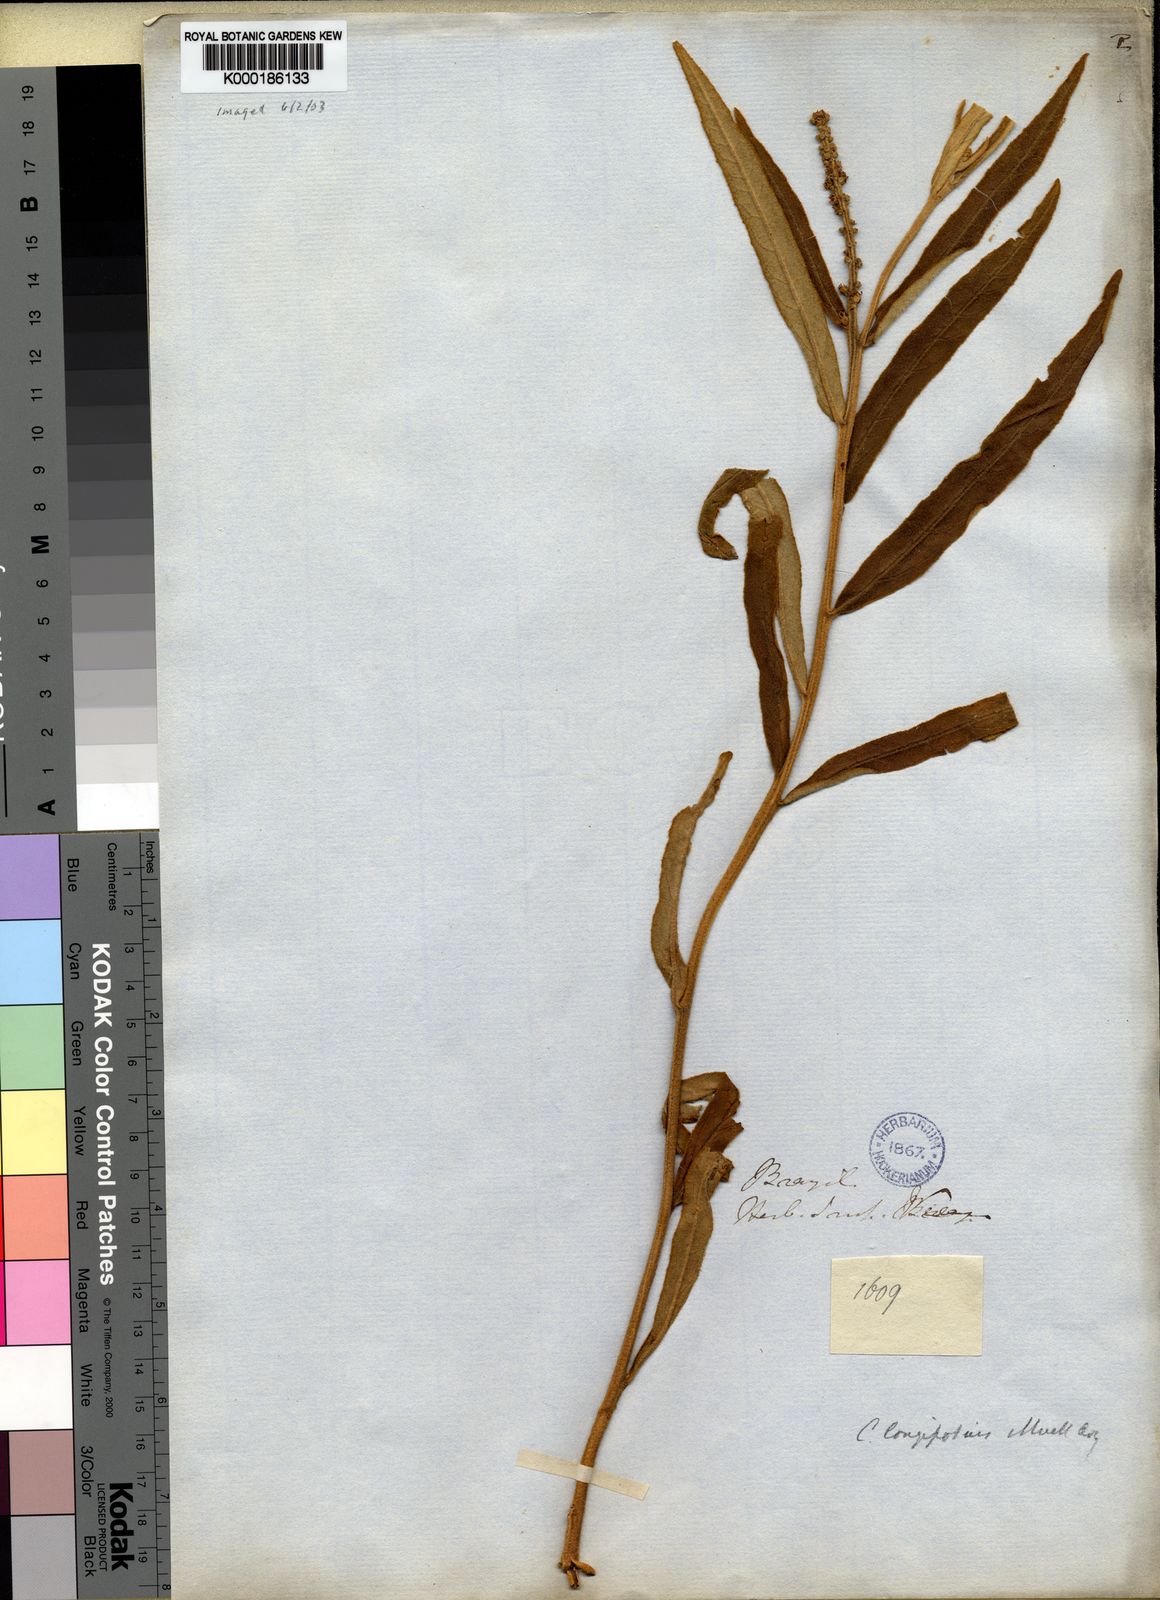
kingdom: Plantae
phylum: Tracheophyta
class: Magnoliopsida
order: Malpighiales
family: Euphorbiaceae
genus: Croton
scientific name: Croton
